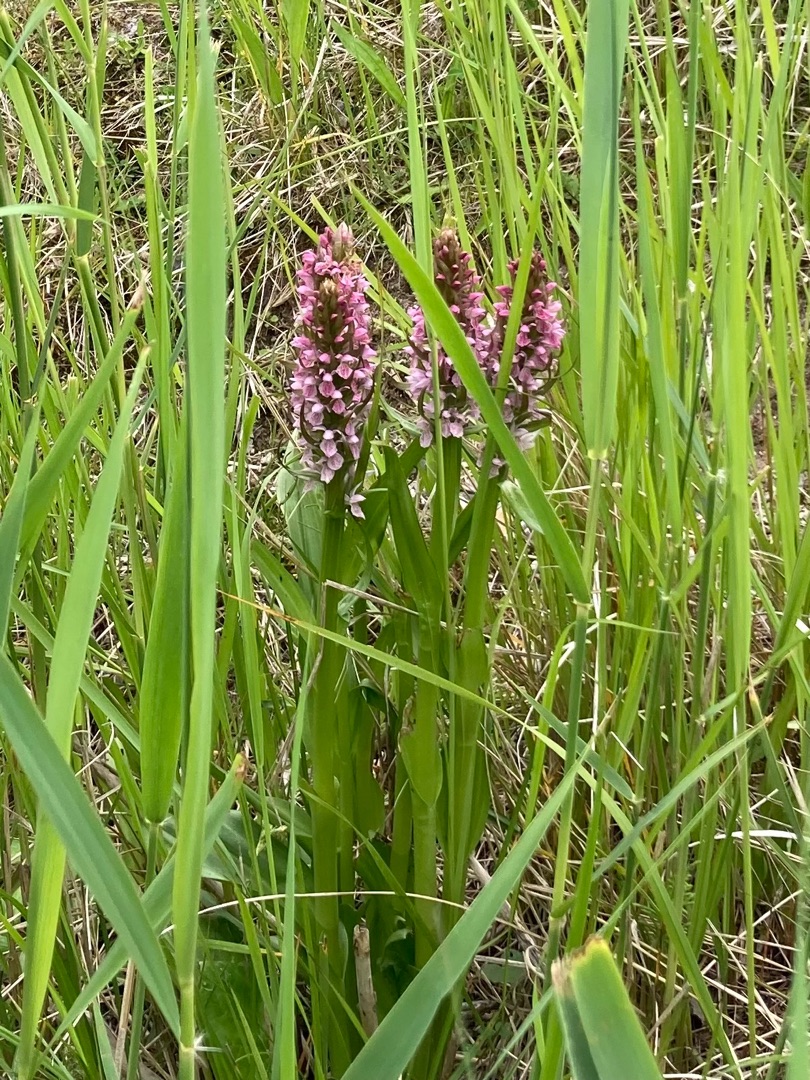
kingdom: Plantae
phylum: Tracheophyta
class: Liliopsida
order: Asparagales
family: Orchidaceae
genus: Dactylorhiza
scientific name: Dactylorhiza incarnata
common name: Kødfarvet gøgeurt
